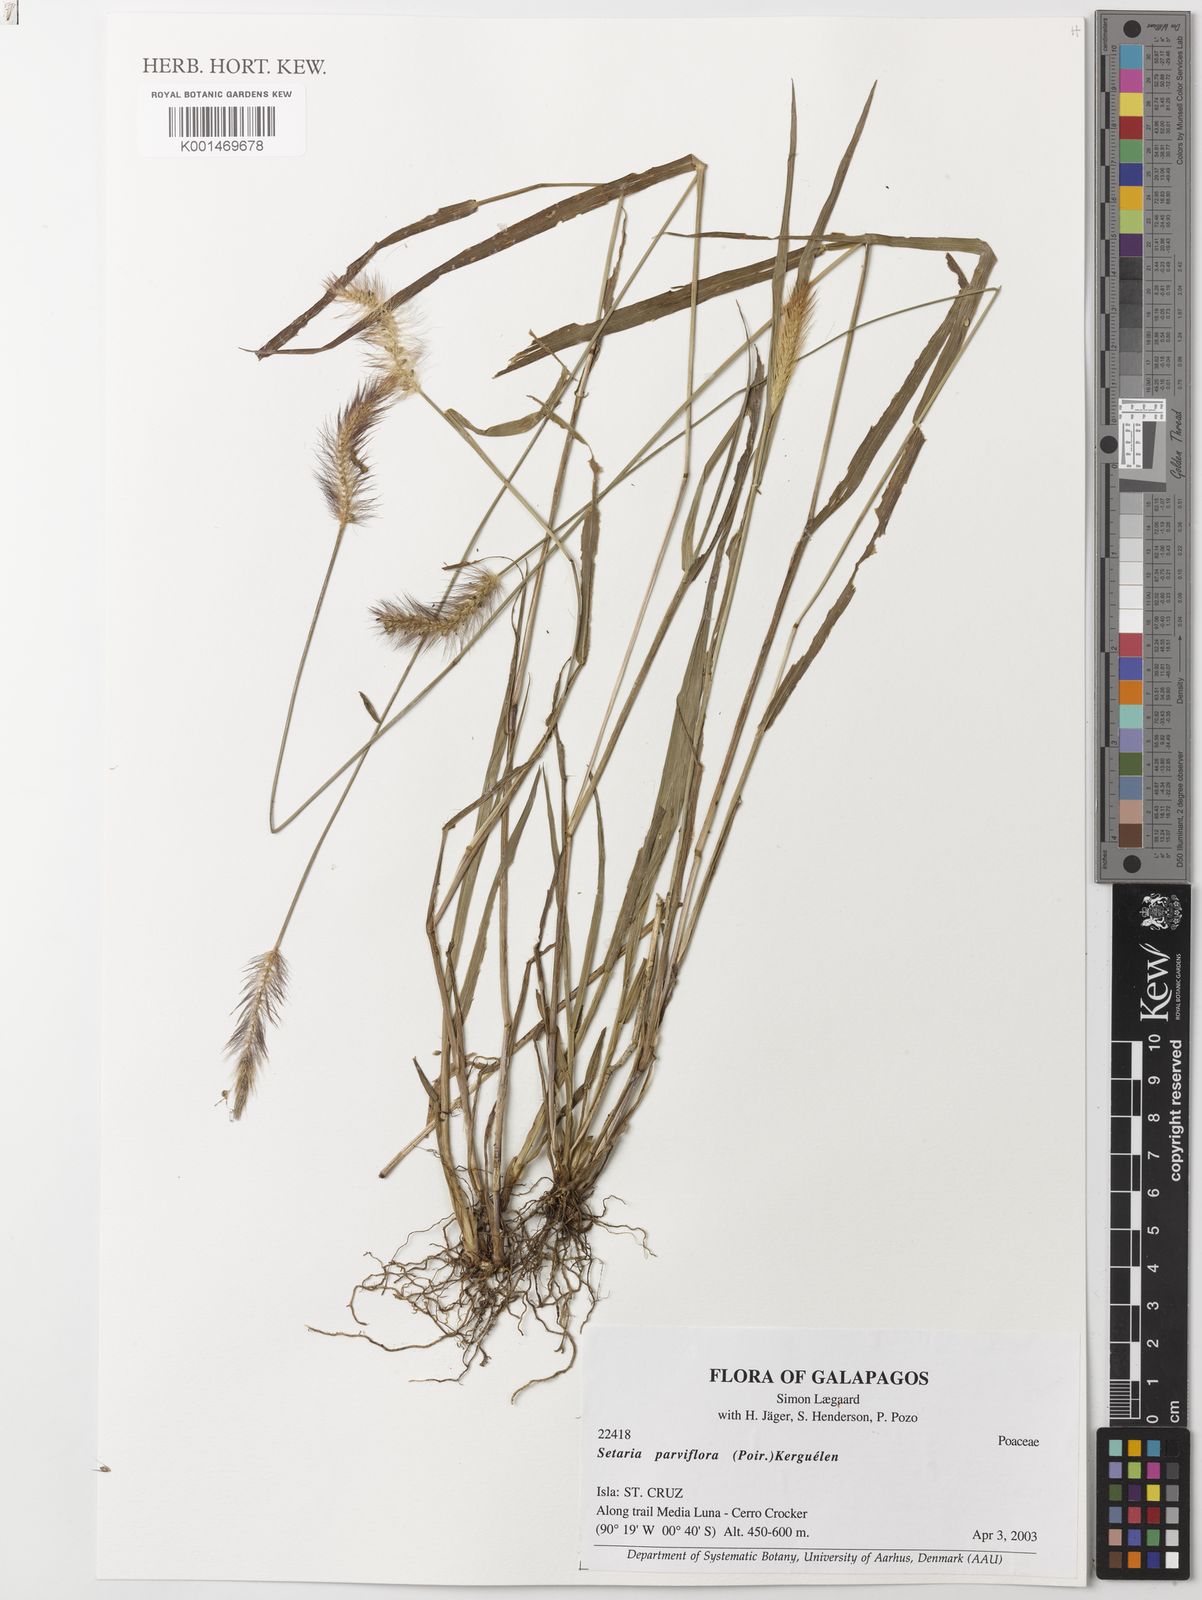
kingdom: Plantae
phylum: Tracheophyta
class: Liliopsida
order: Poales
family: Poaceae
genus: Setaria
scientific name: Setaria parviflora
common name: Knotroot bristle-grass
